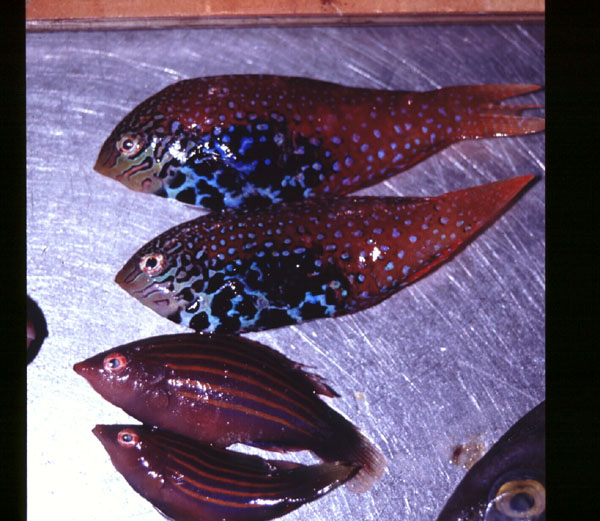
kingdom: Animalia
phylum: Chordata
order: Perciformes
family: Labridae
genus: Macropharyngodon
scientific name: Macropharyngodon bipartitus
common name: Divided wrasse
